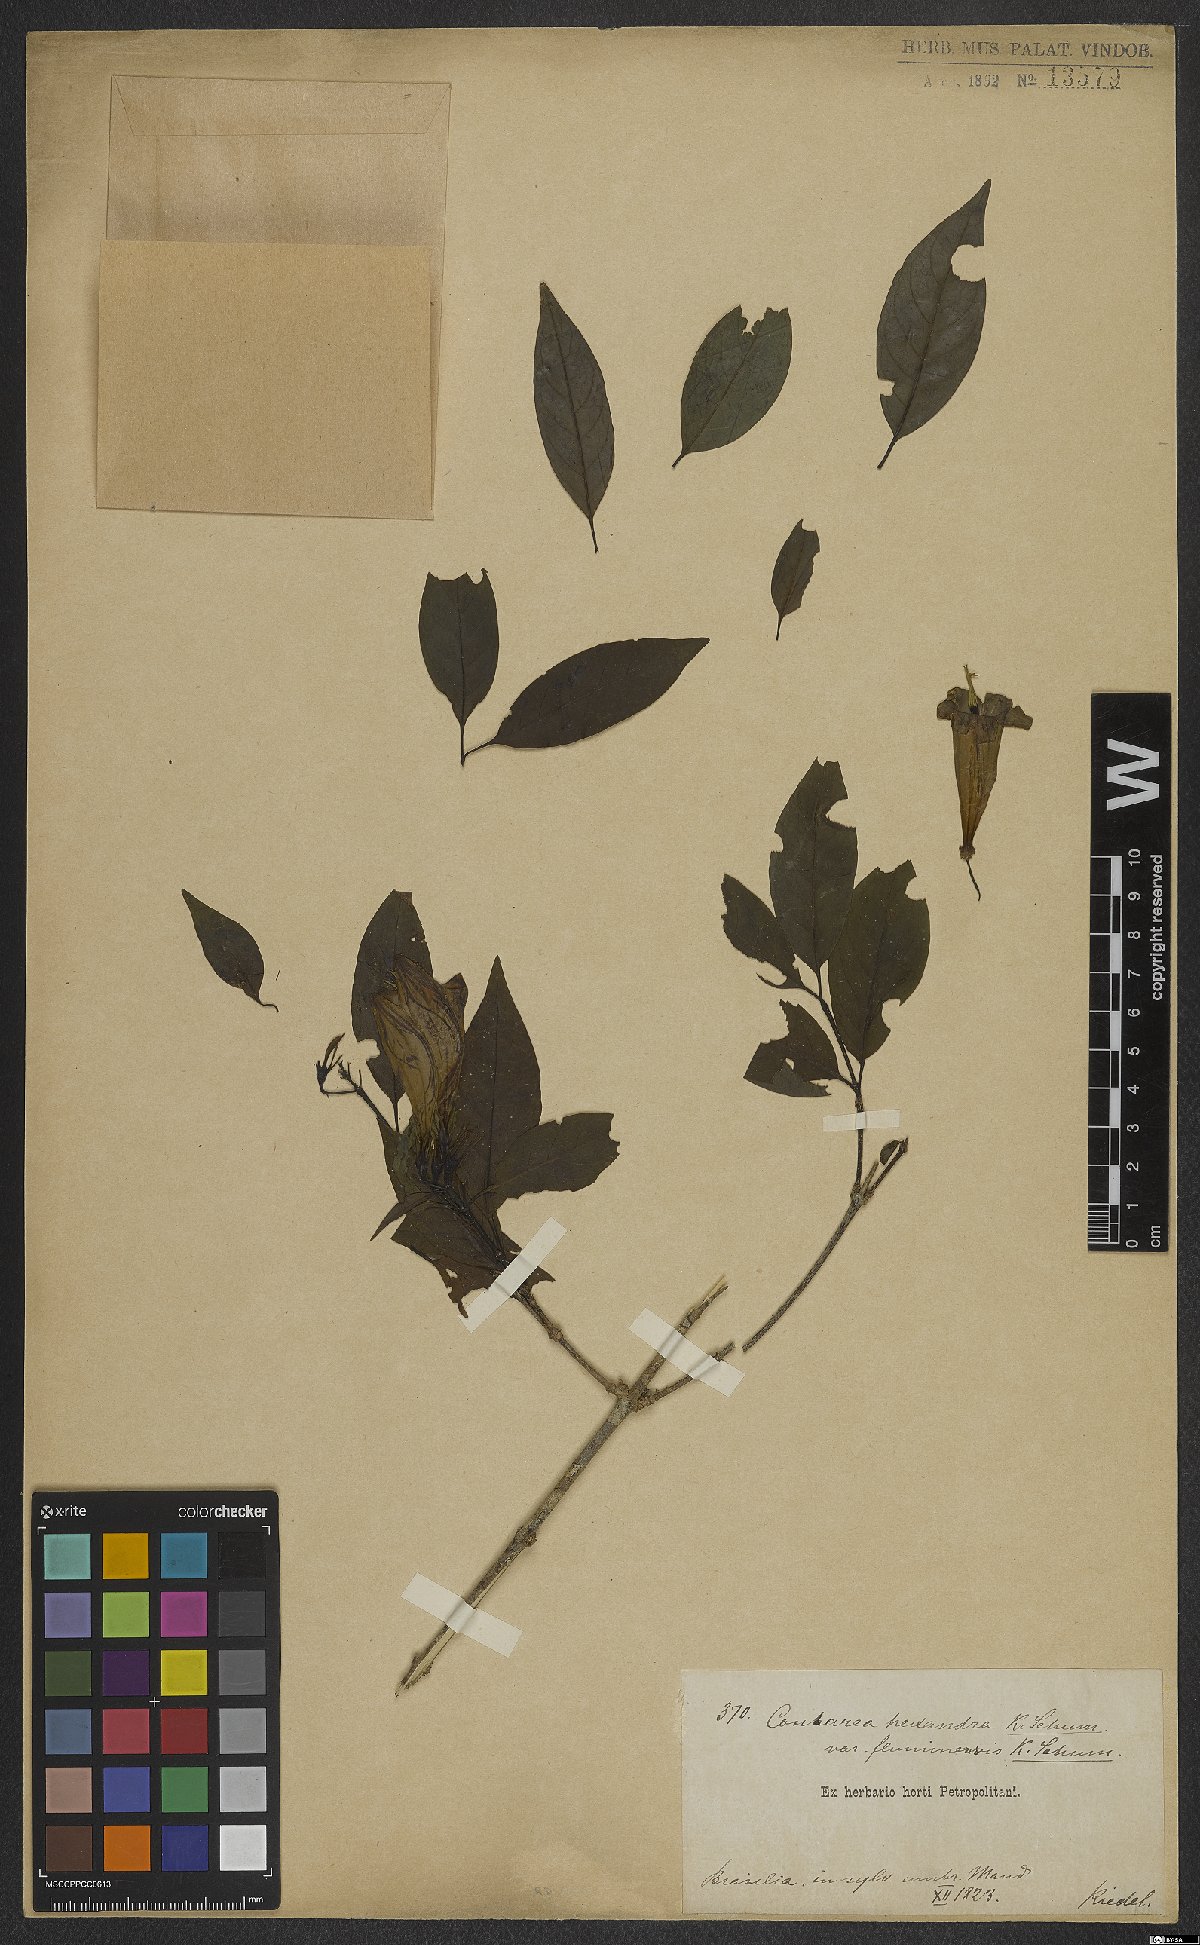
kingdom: Plantae
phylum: Tracheophyta
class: Magnoliopsida
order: Gentianales
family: Rubiaceae
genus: Coutarea
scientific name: Coutarea hexandra
